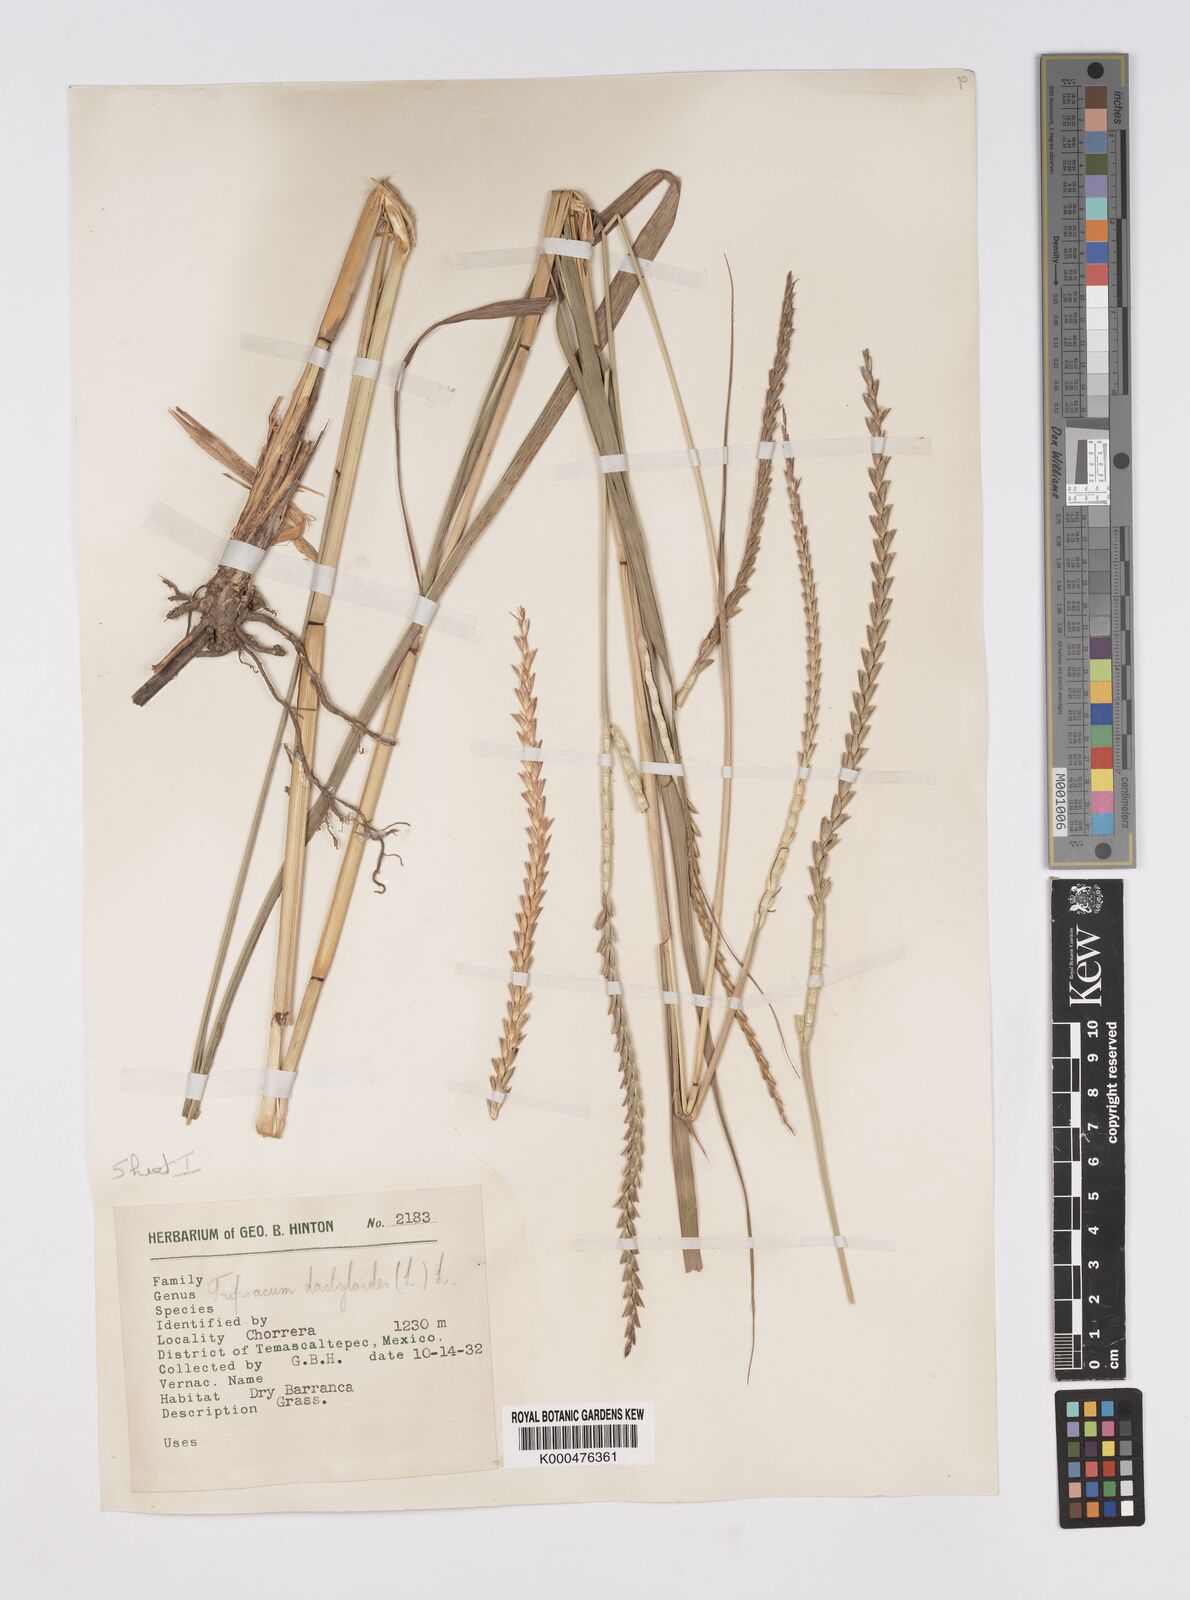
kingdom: Plantae
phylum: Tracheophyta
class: Liliopsida
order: Poales
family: Poaceae
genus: Tripsacum
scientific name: Tripsacum dactyloides
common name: Buffalo-grass
